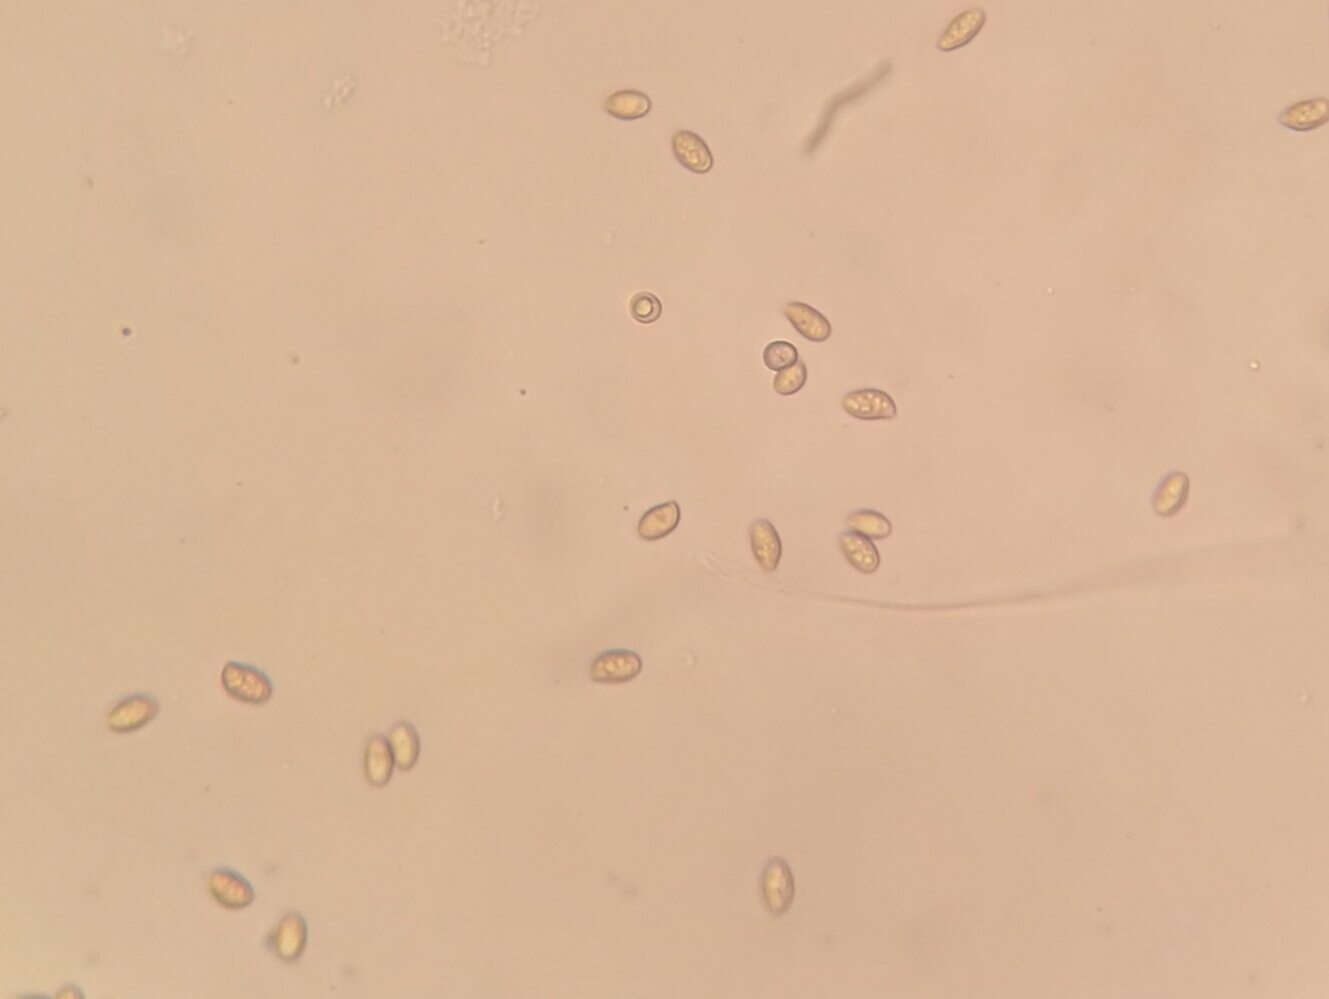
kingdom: Fungi
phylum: Basidiomycota
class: Agaricomycetes
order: Agaricales
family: Tubariaceae
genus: Tubaria
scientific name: Tubaria furfuracea
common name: kliddet fnughat
